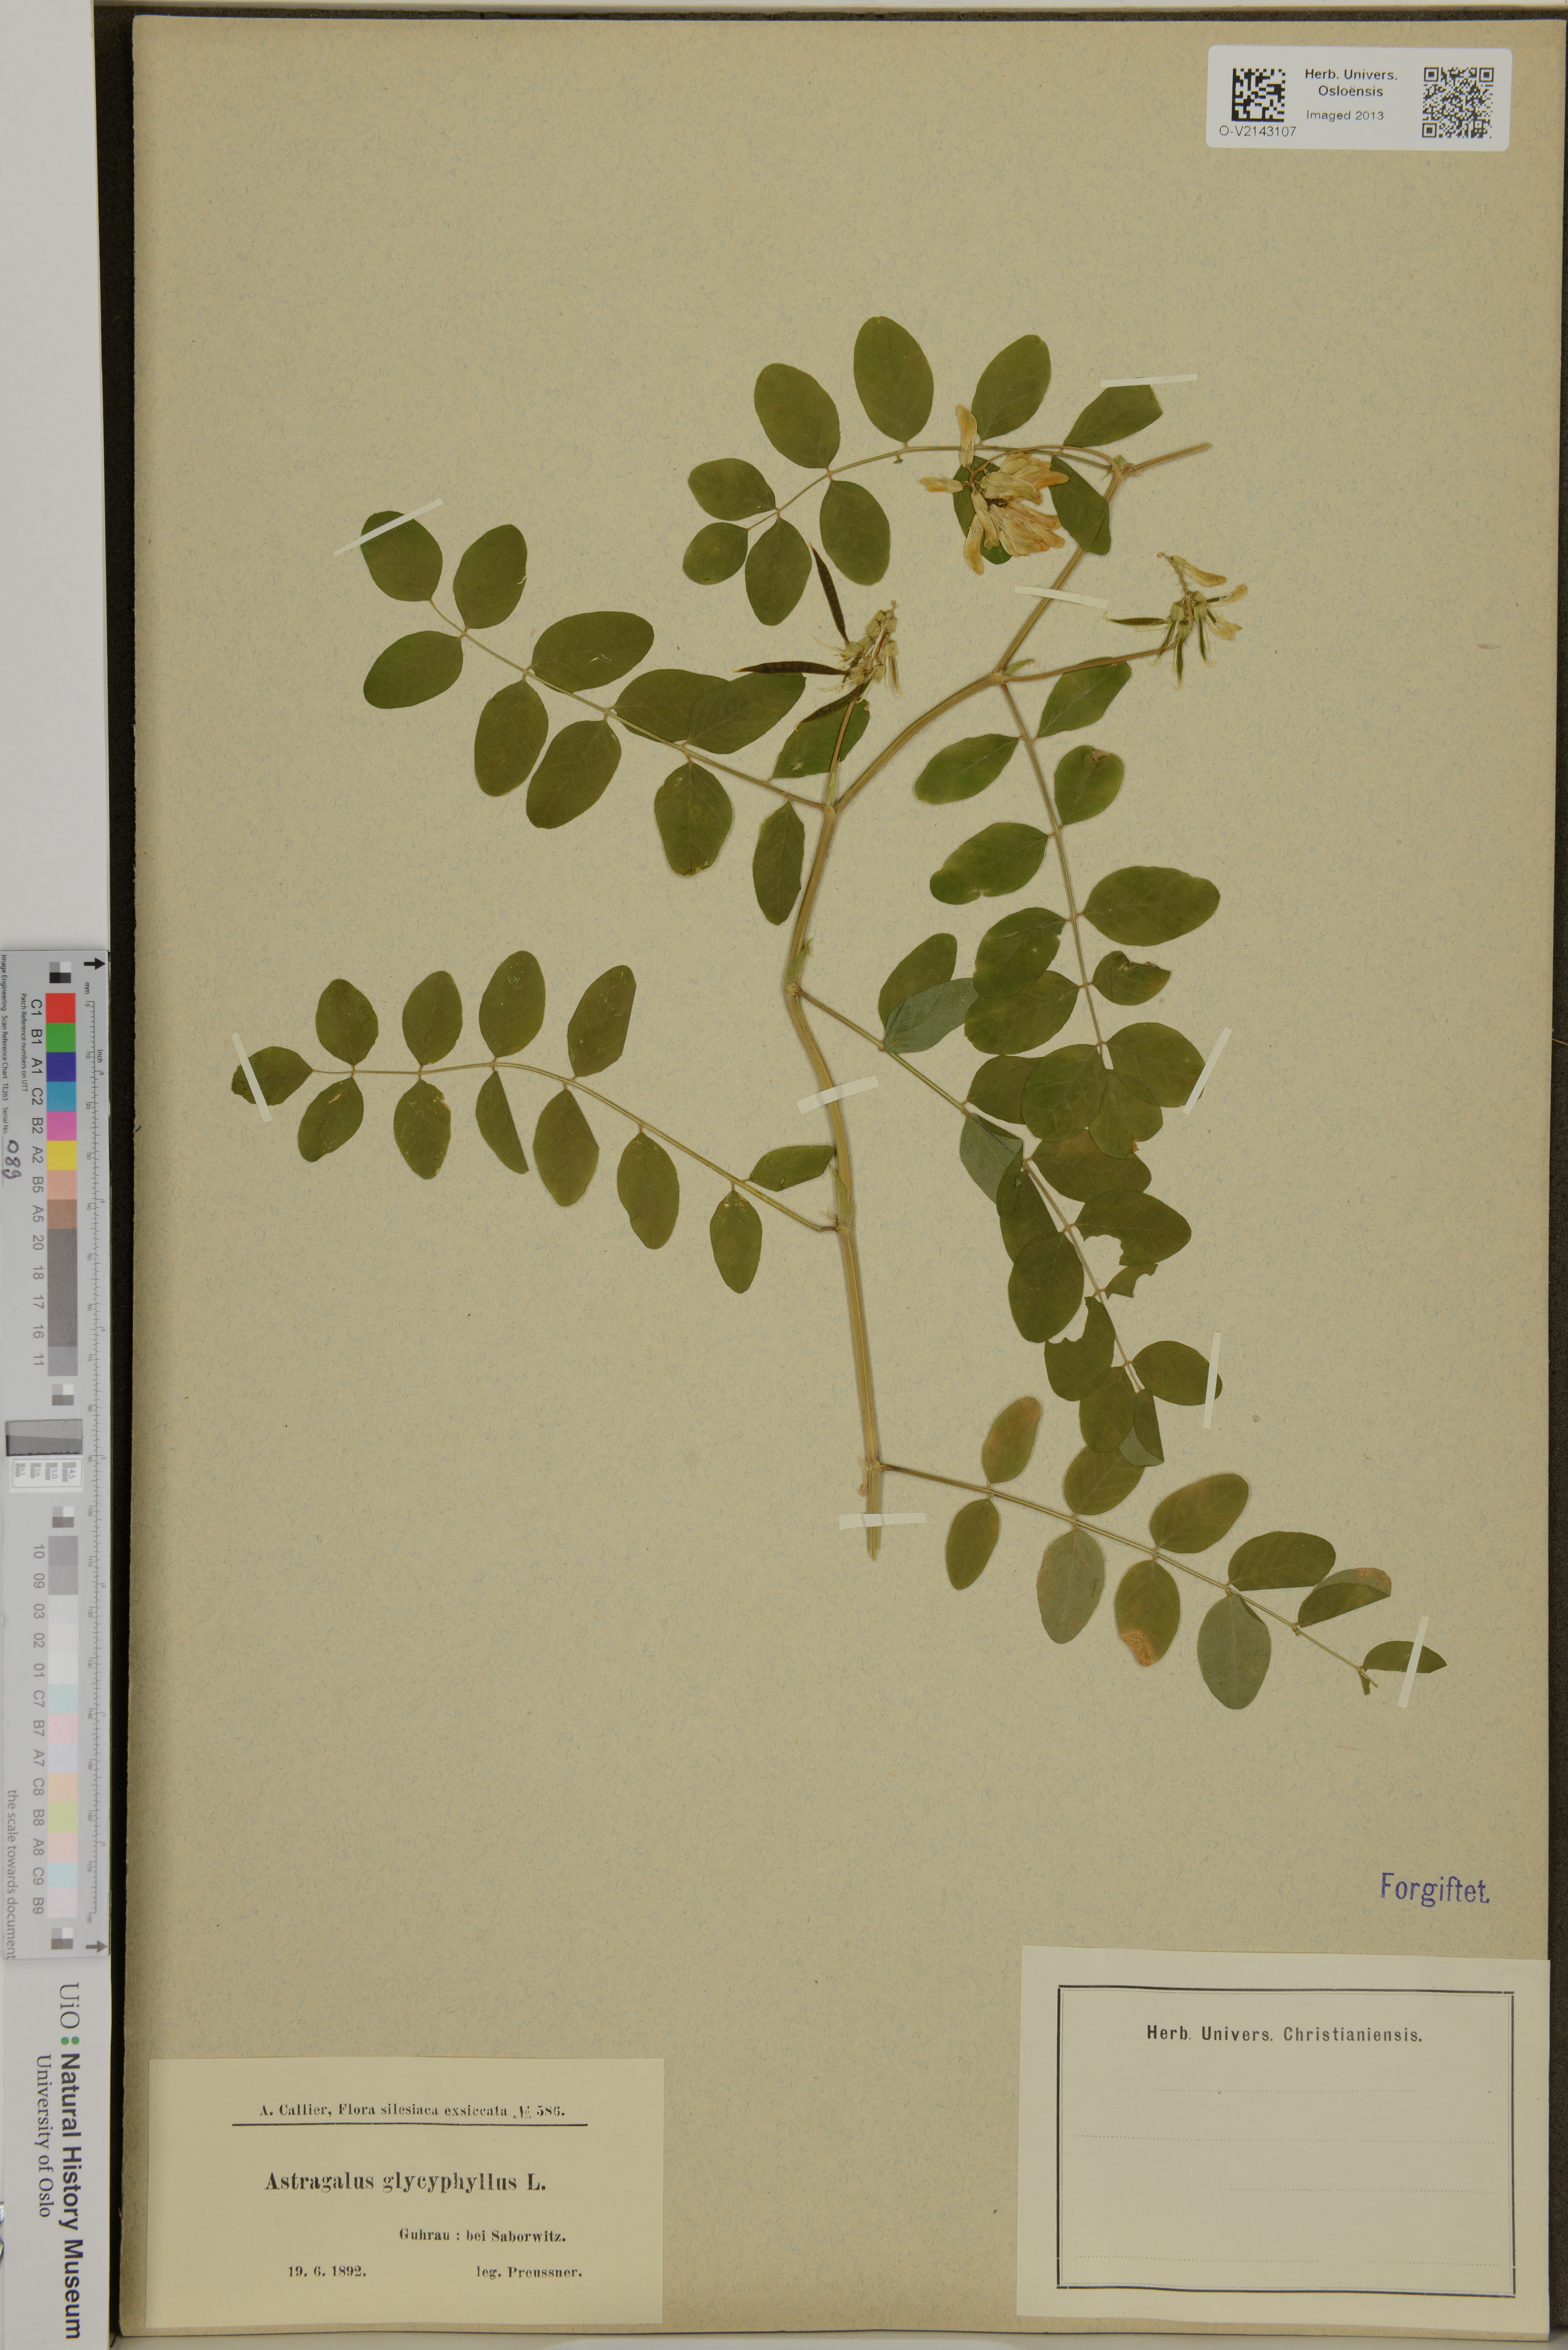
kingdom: Plantae
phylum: Tracheophyta
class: Magnoliopsida
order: Fabales
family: Fabaceae
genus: Astragalus
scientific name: Astragalus glycyphyllos
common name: Wild liquorice
